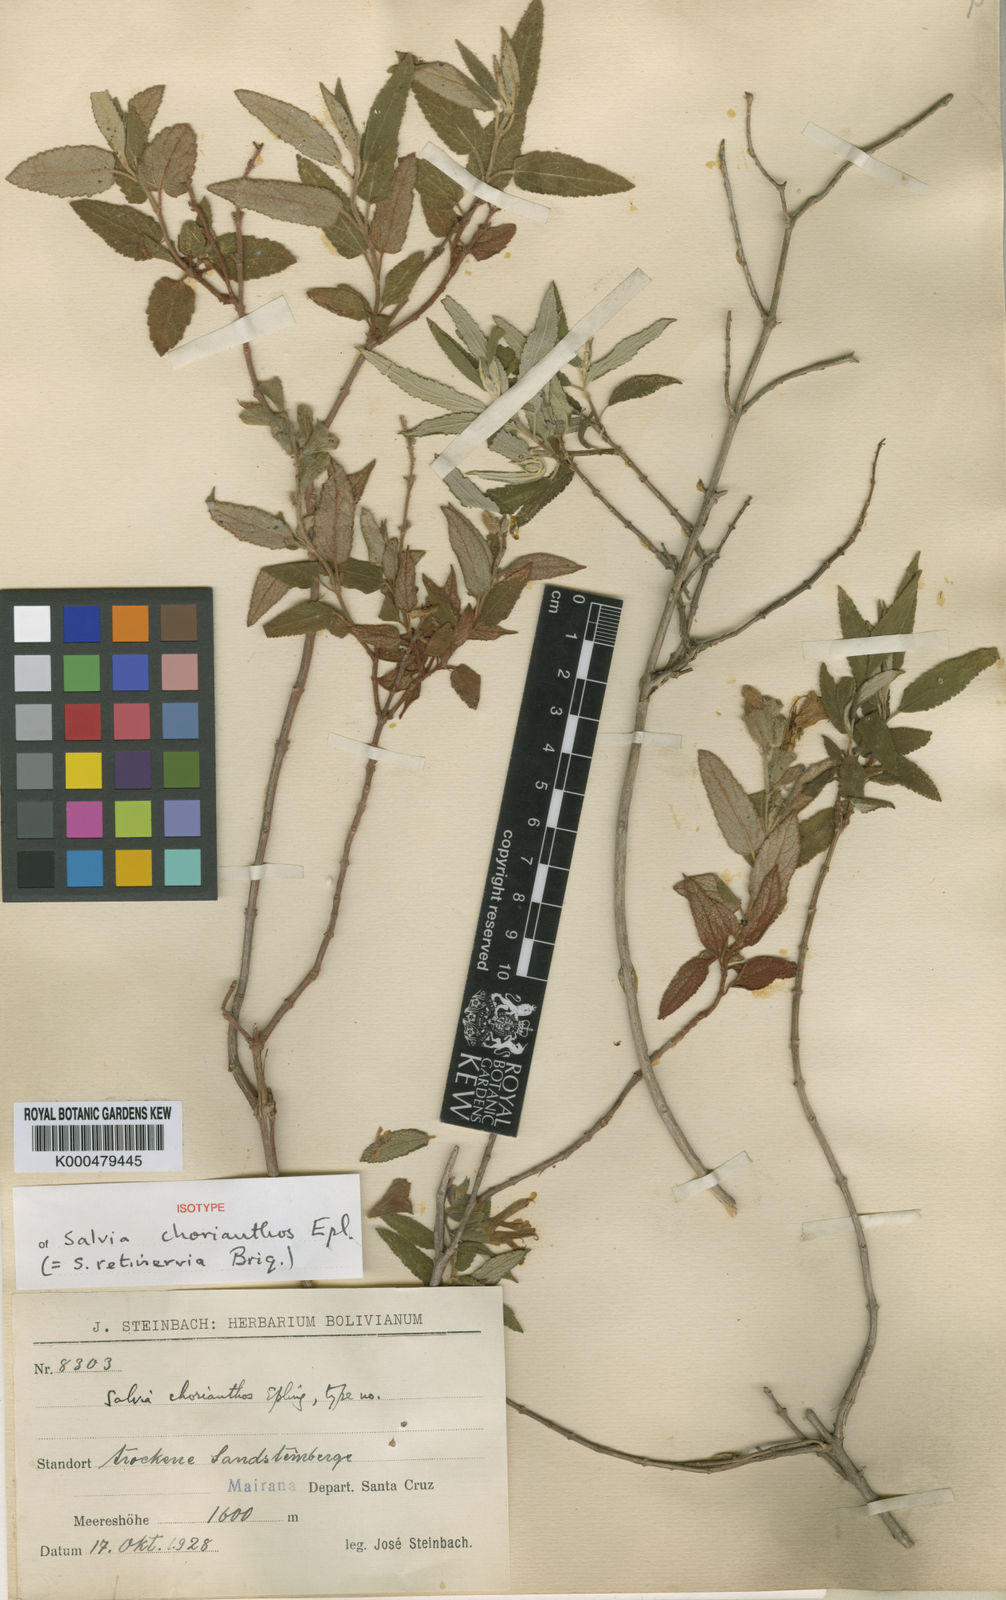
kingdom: Plantae
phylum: Tracheophyta
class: Magnoliopsida
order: Lamiales
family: Lamiaceae
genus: Salvia
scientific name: Salvia retinervia
